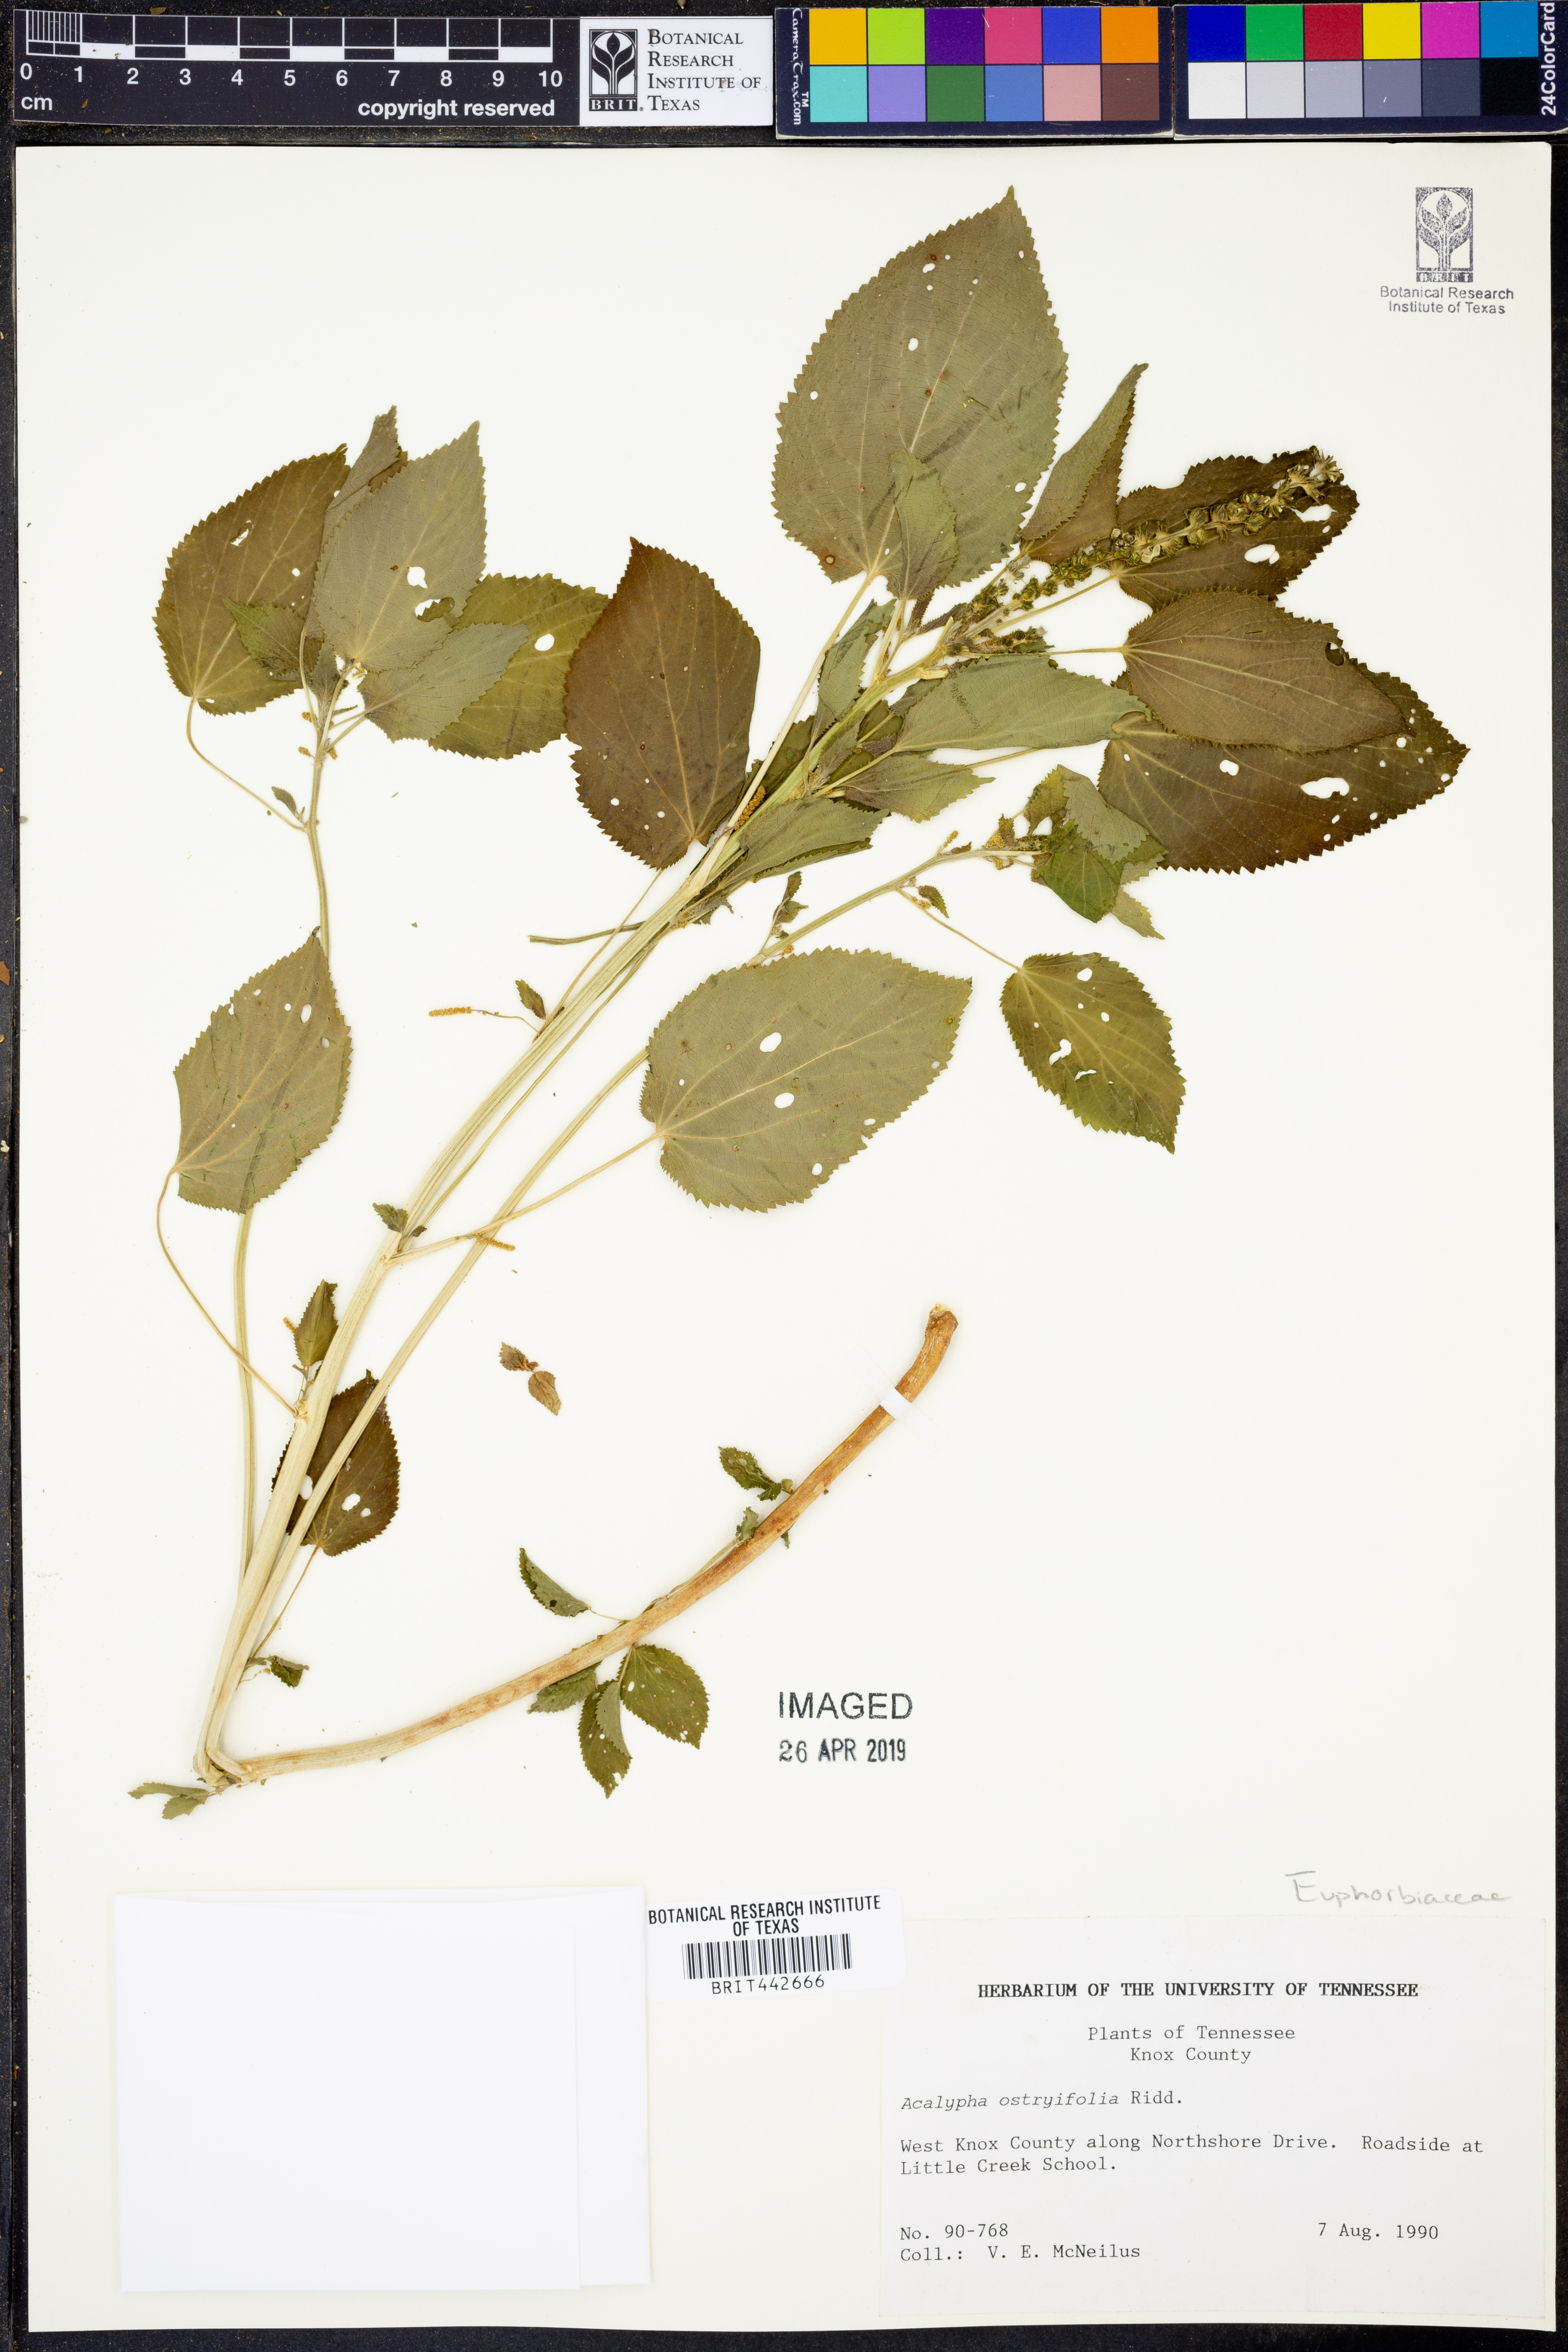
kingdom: Plantae
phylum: Tracheophyta
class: Magnoliopsida
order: Malpighiales
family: Euphorbiaceae
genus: Acalypha
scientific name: Acalypha persimilis
